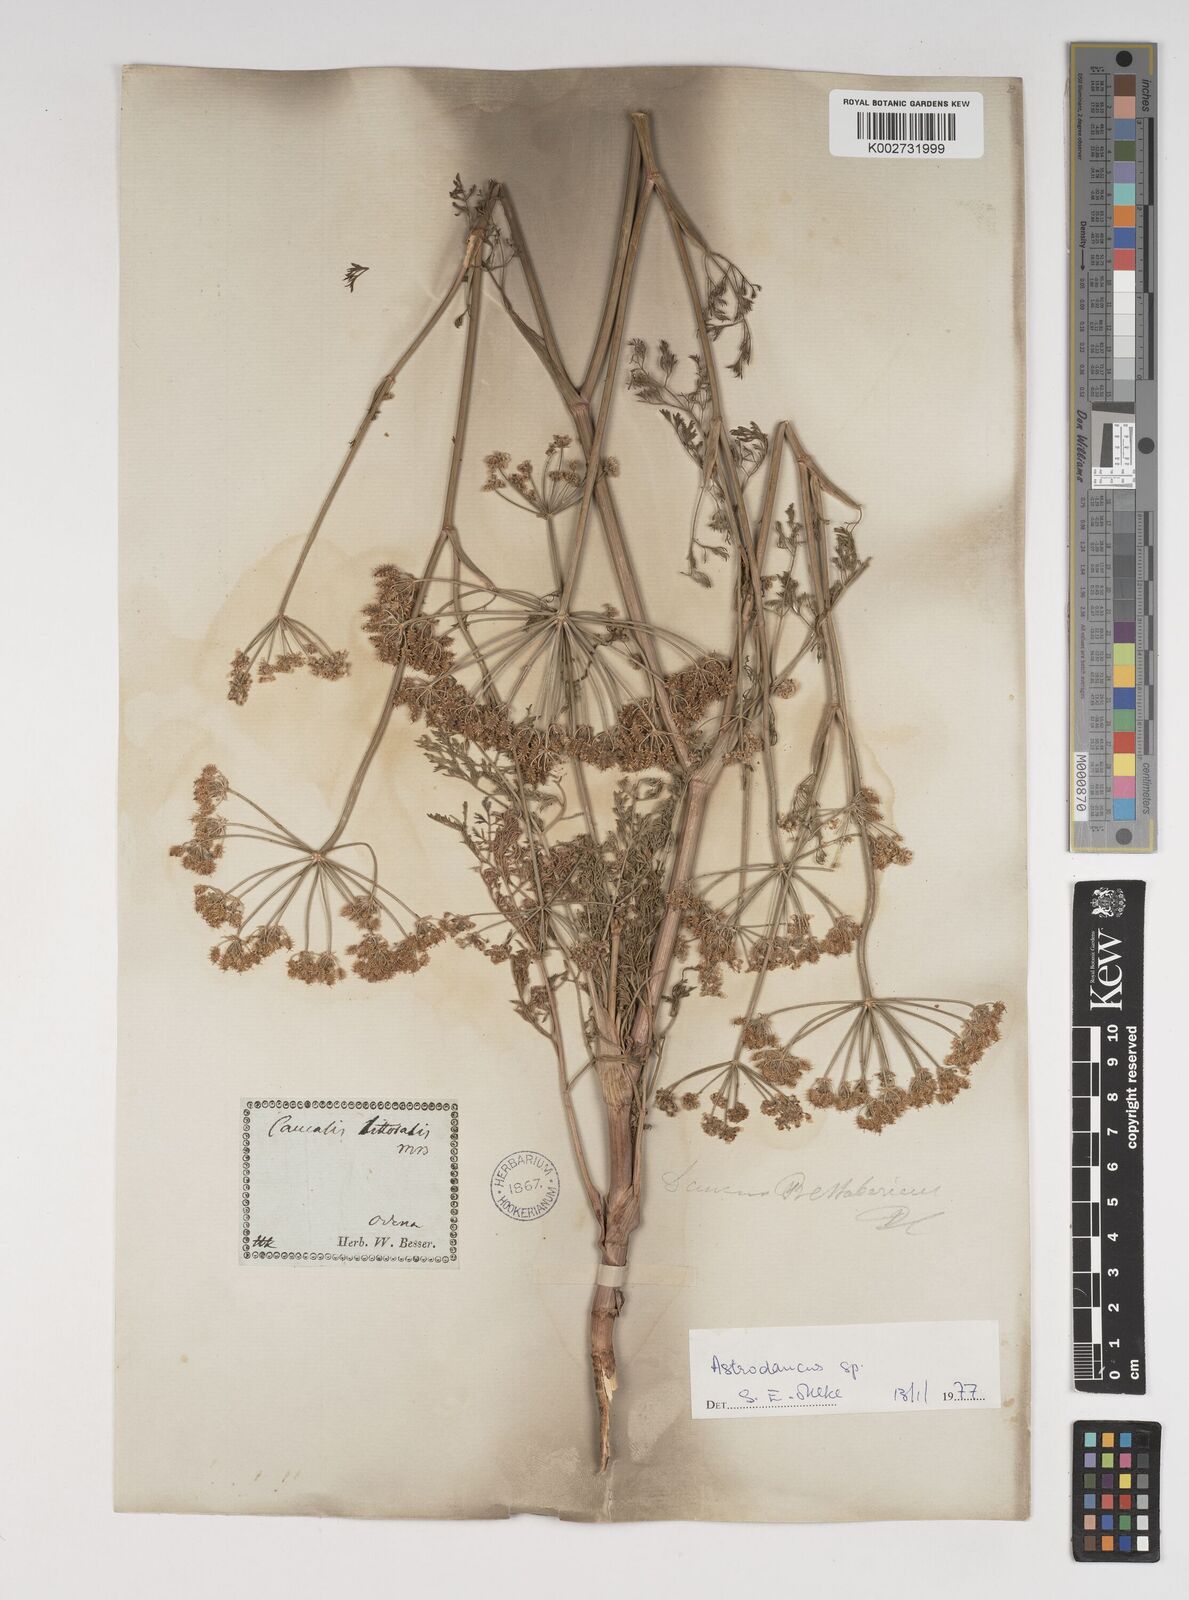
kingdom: Plantae
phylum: Tracheophyta
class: Magnoliopsida
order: Apiales
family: Apiaceae
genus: Astrodaucus
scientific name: Astrodaucus littoralis
